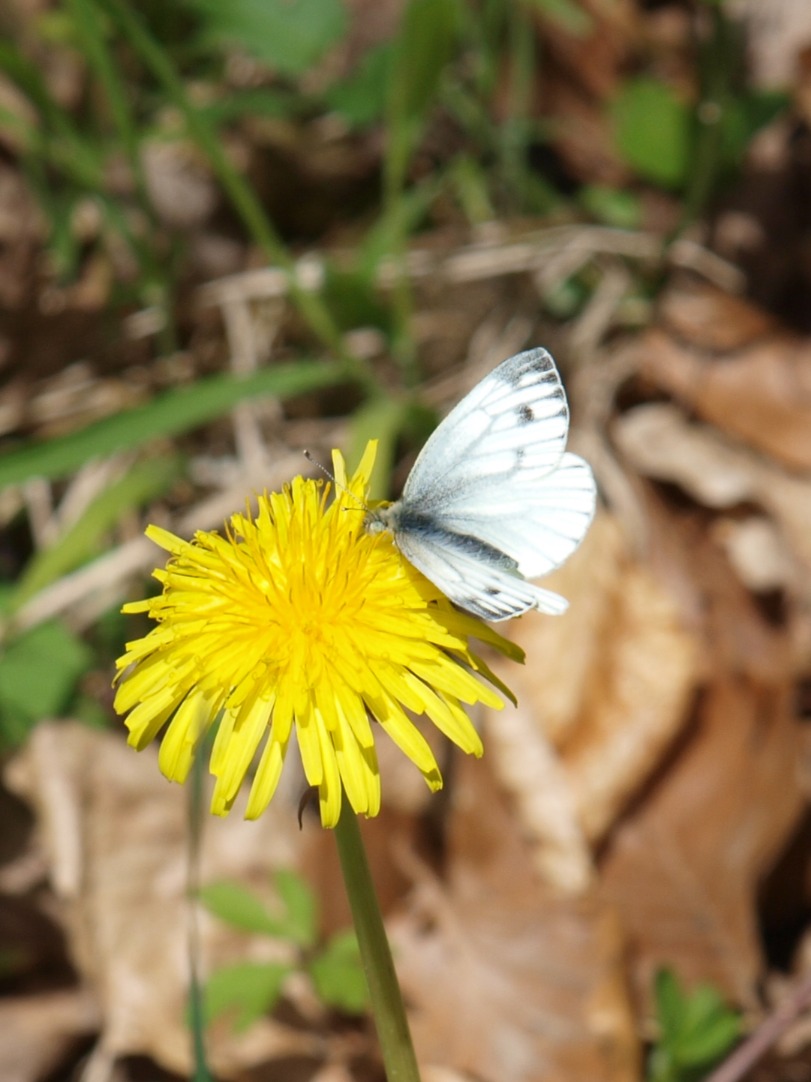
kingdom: Animalia
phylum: Arthropoda
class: Insecta
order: Lepidoptera
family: Pieridae
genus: Pieris
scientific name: Pieris napi
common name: Grønåret kålsommerfugl
